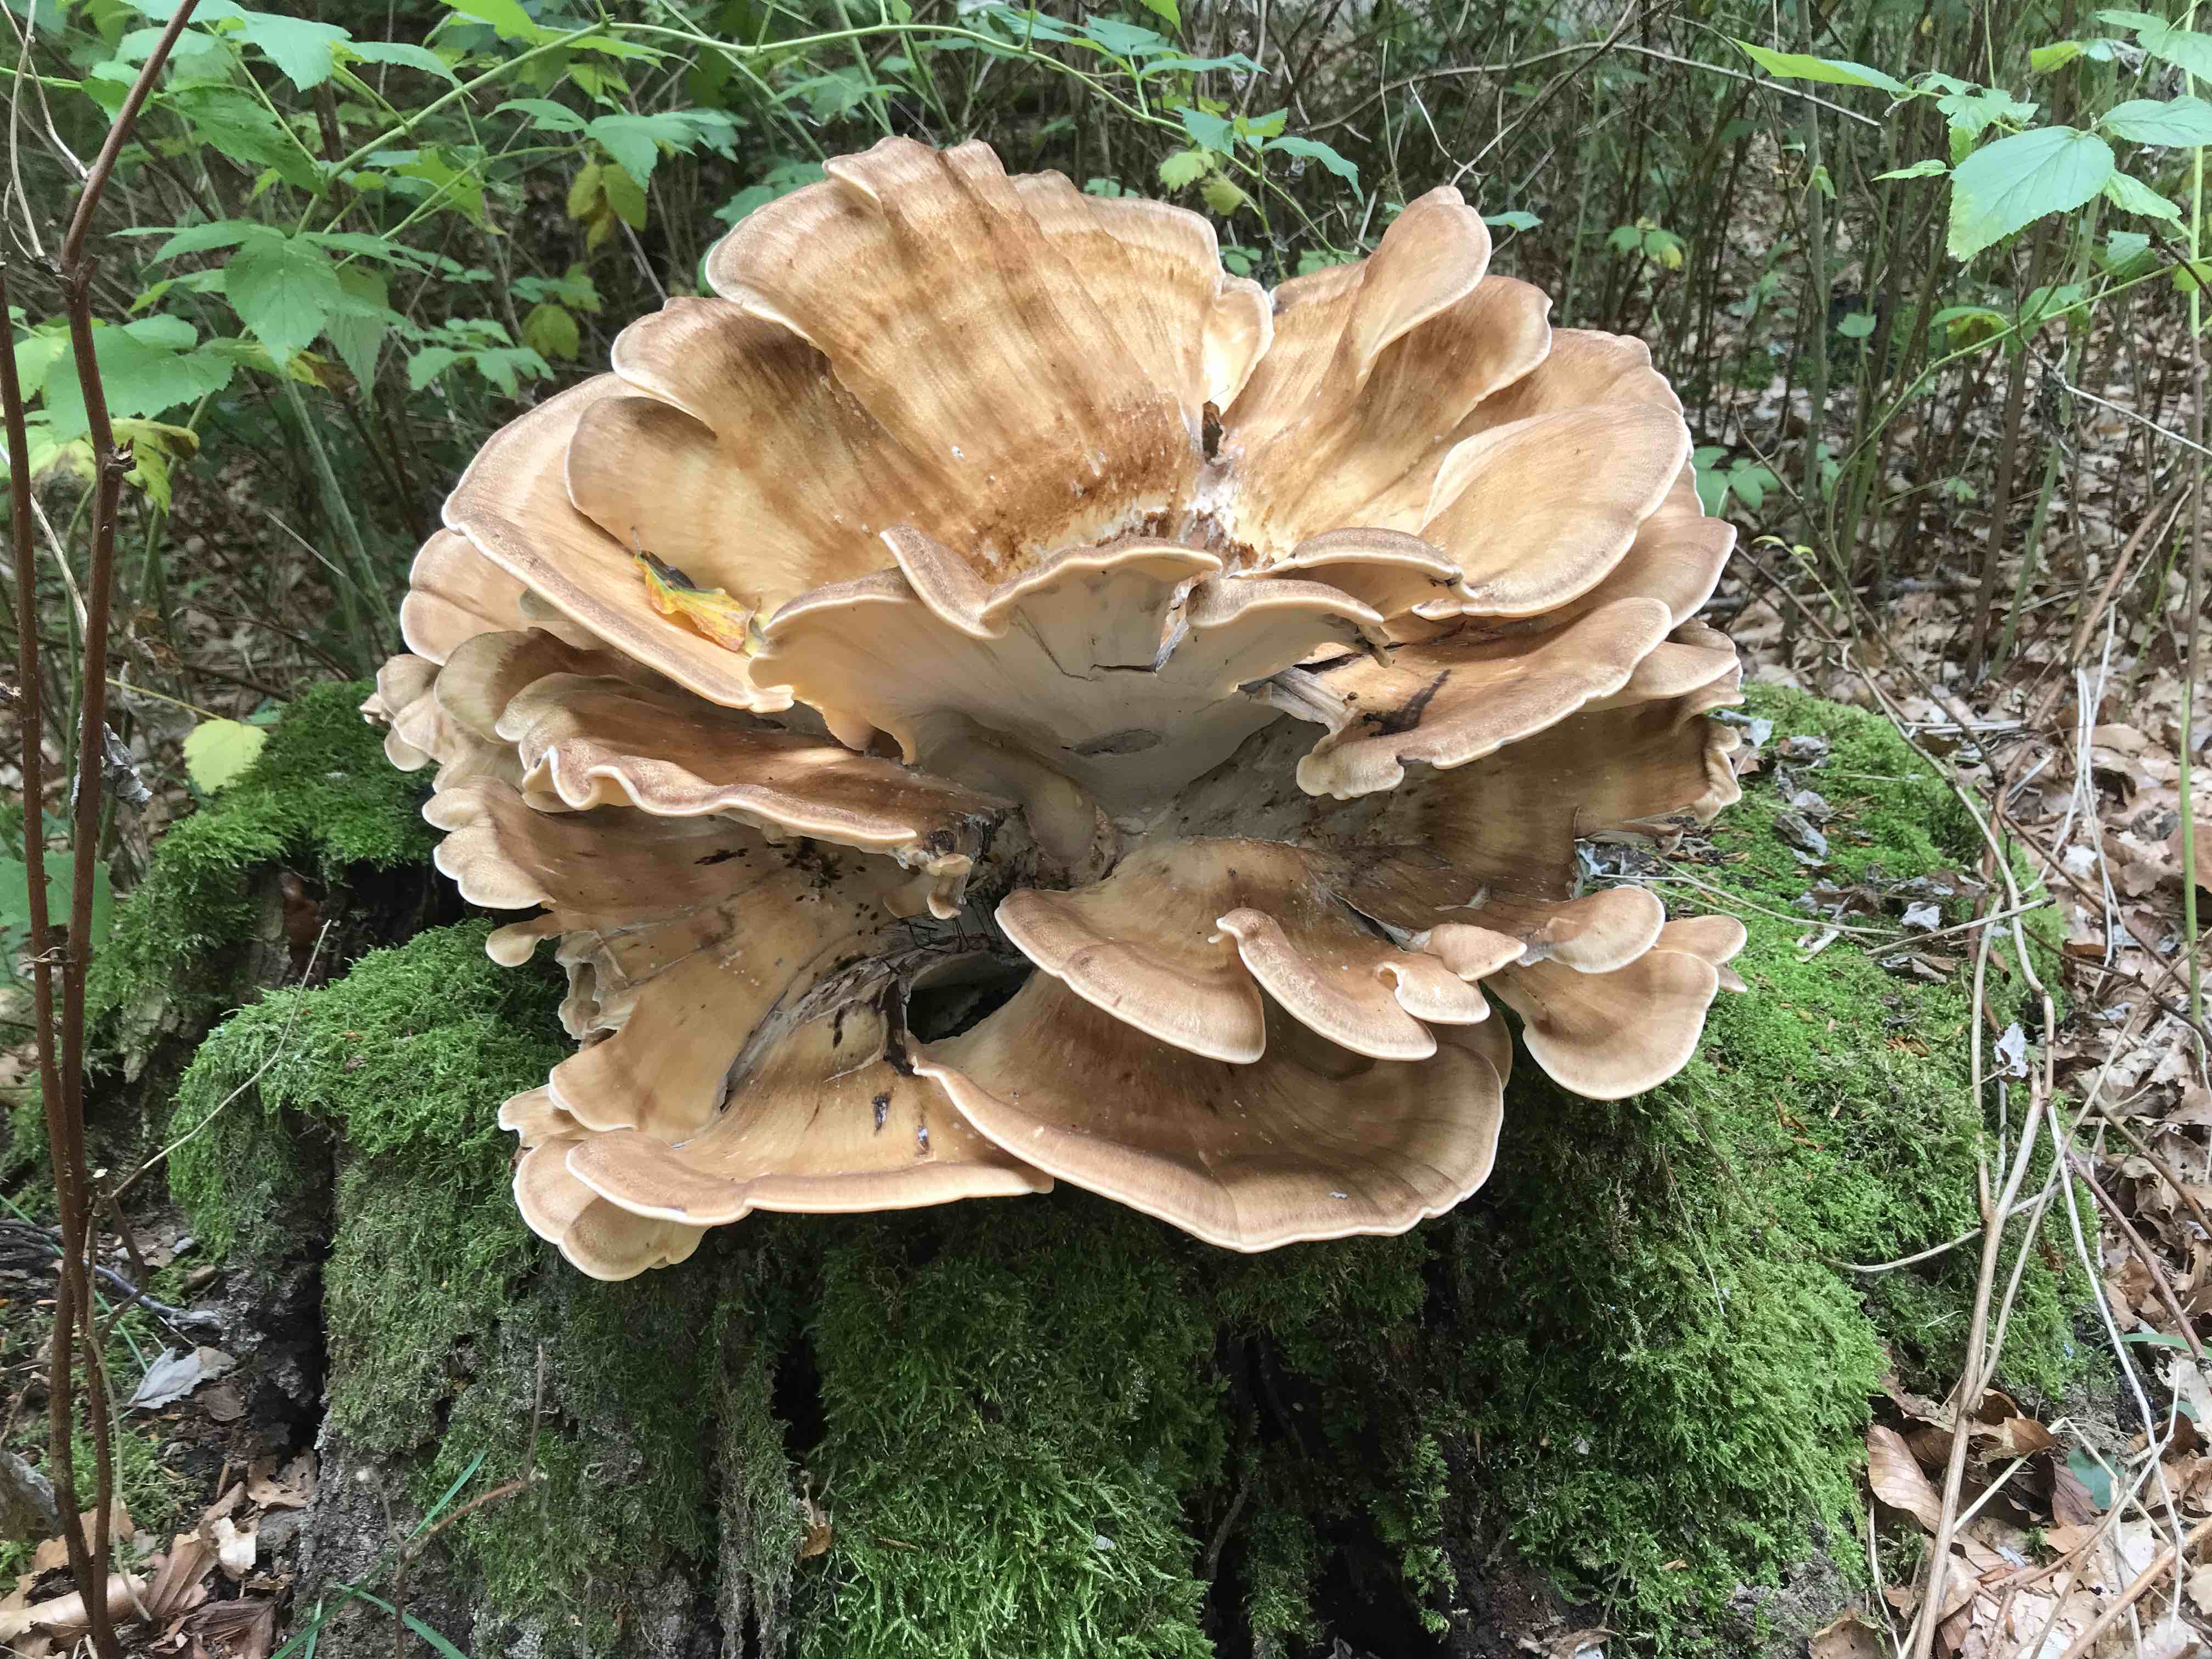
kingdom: Fungi
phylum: Basidiomycota
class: Agaricomycetes
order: Polyporales
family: Meripilaceae
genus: Meripilus
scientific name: Meripilus giganteus
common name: kæmpeporesvamp
